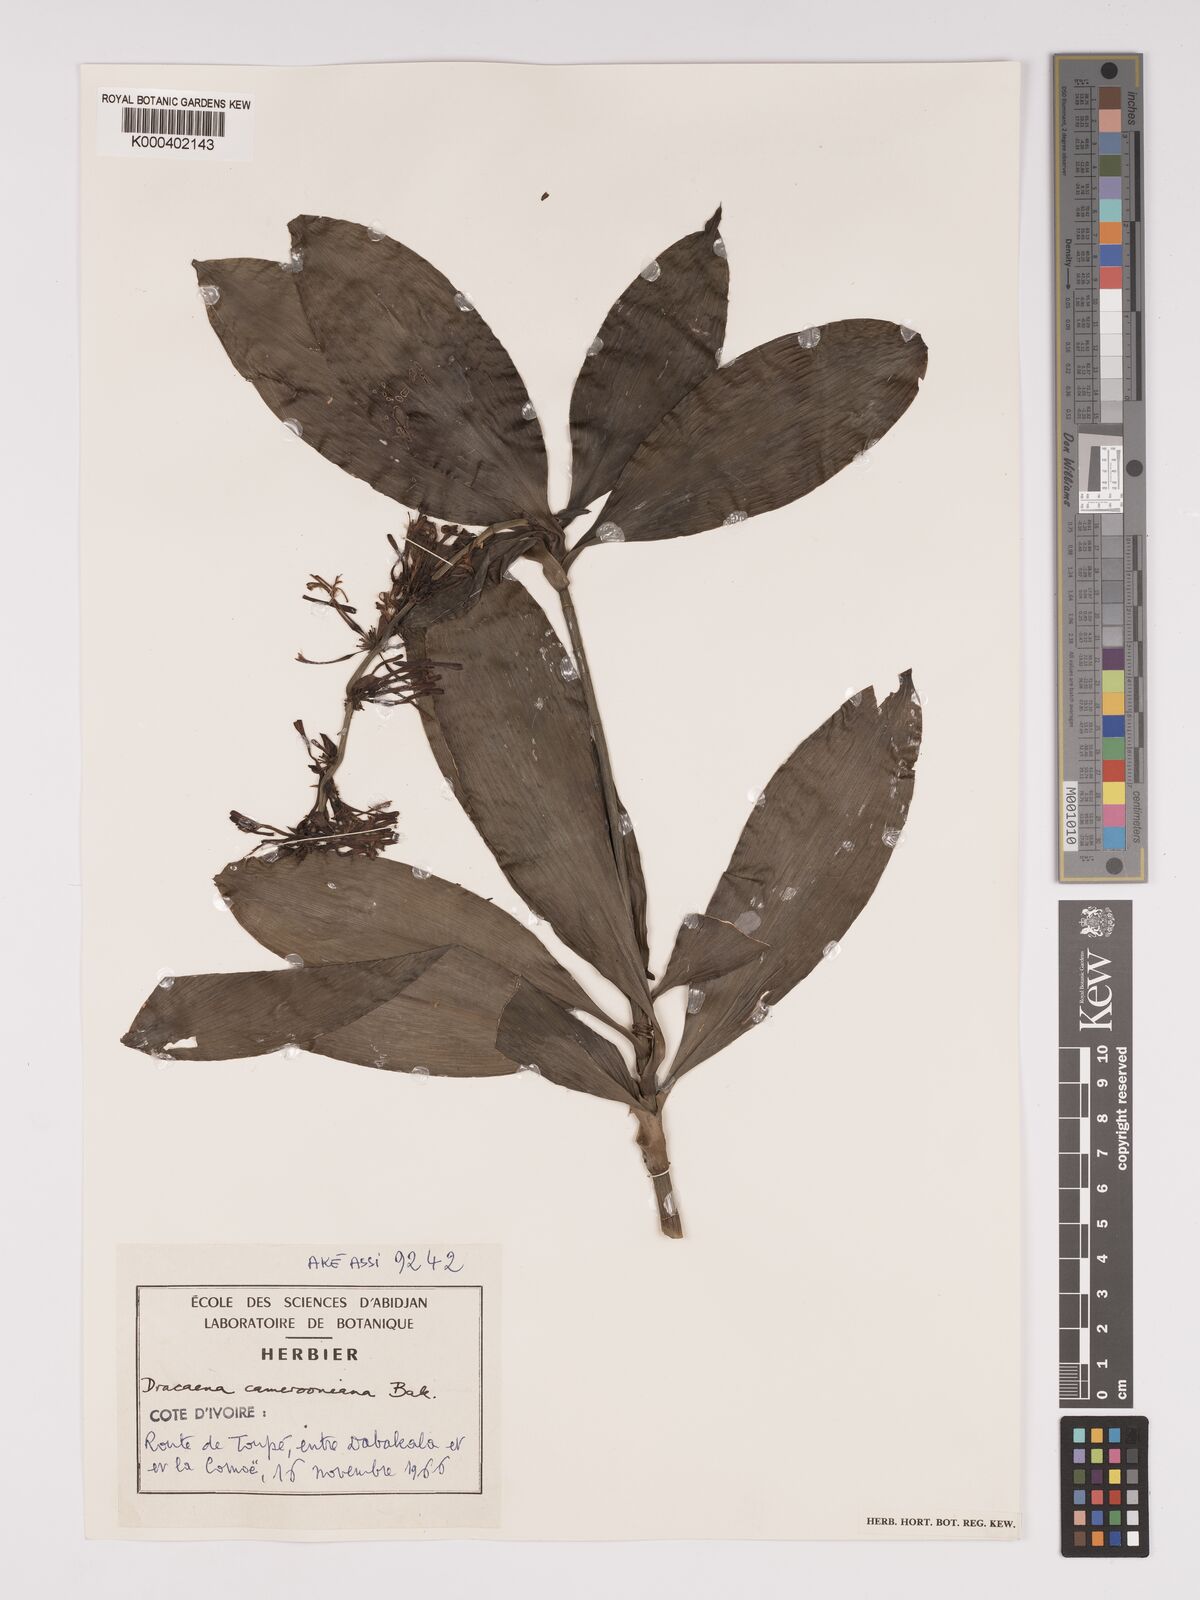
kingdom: Plantae
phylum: Tracheophyta
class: Liliopsida
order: Asparagales
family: Asparagaceae
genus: Dracaena
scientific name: Dracaena camerooniana
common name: Dragon tree
